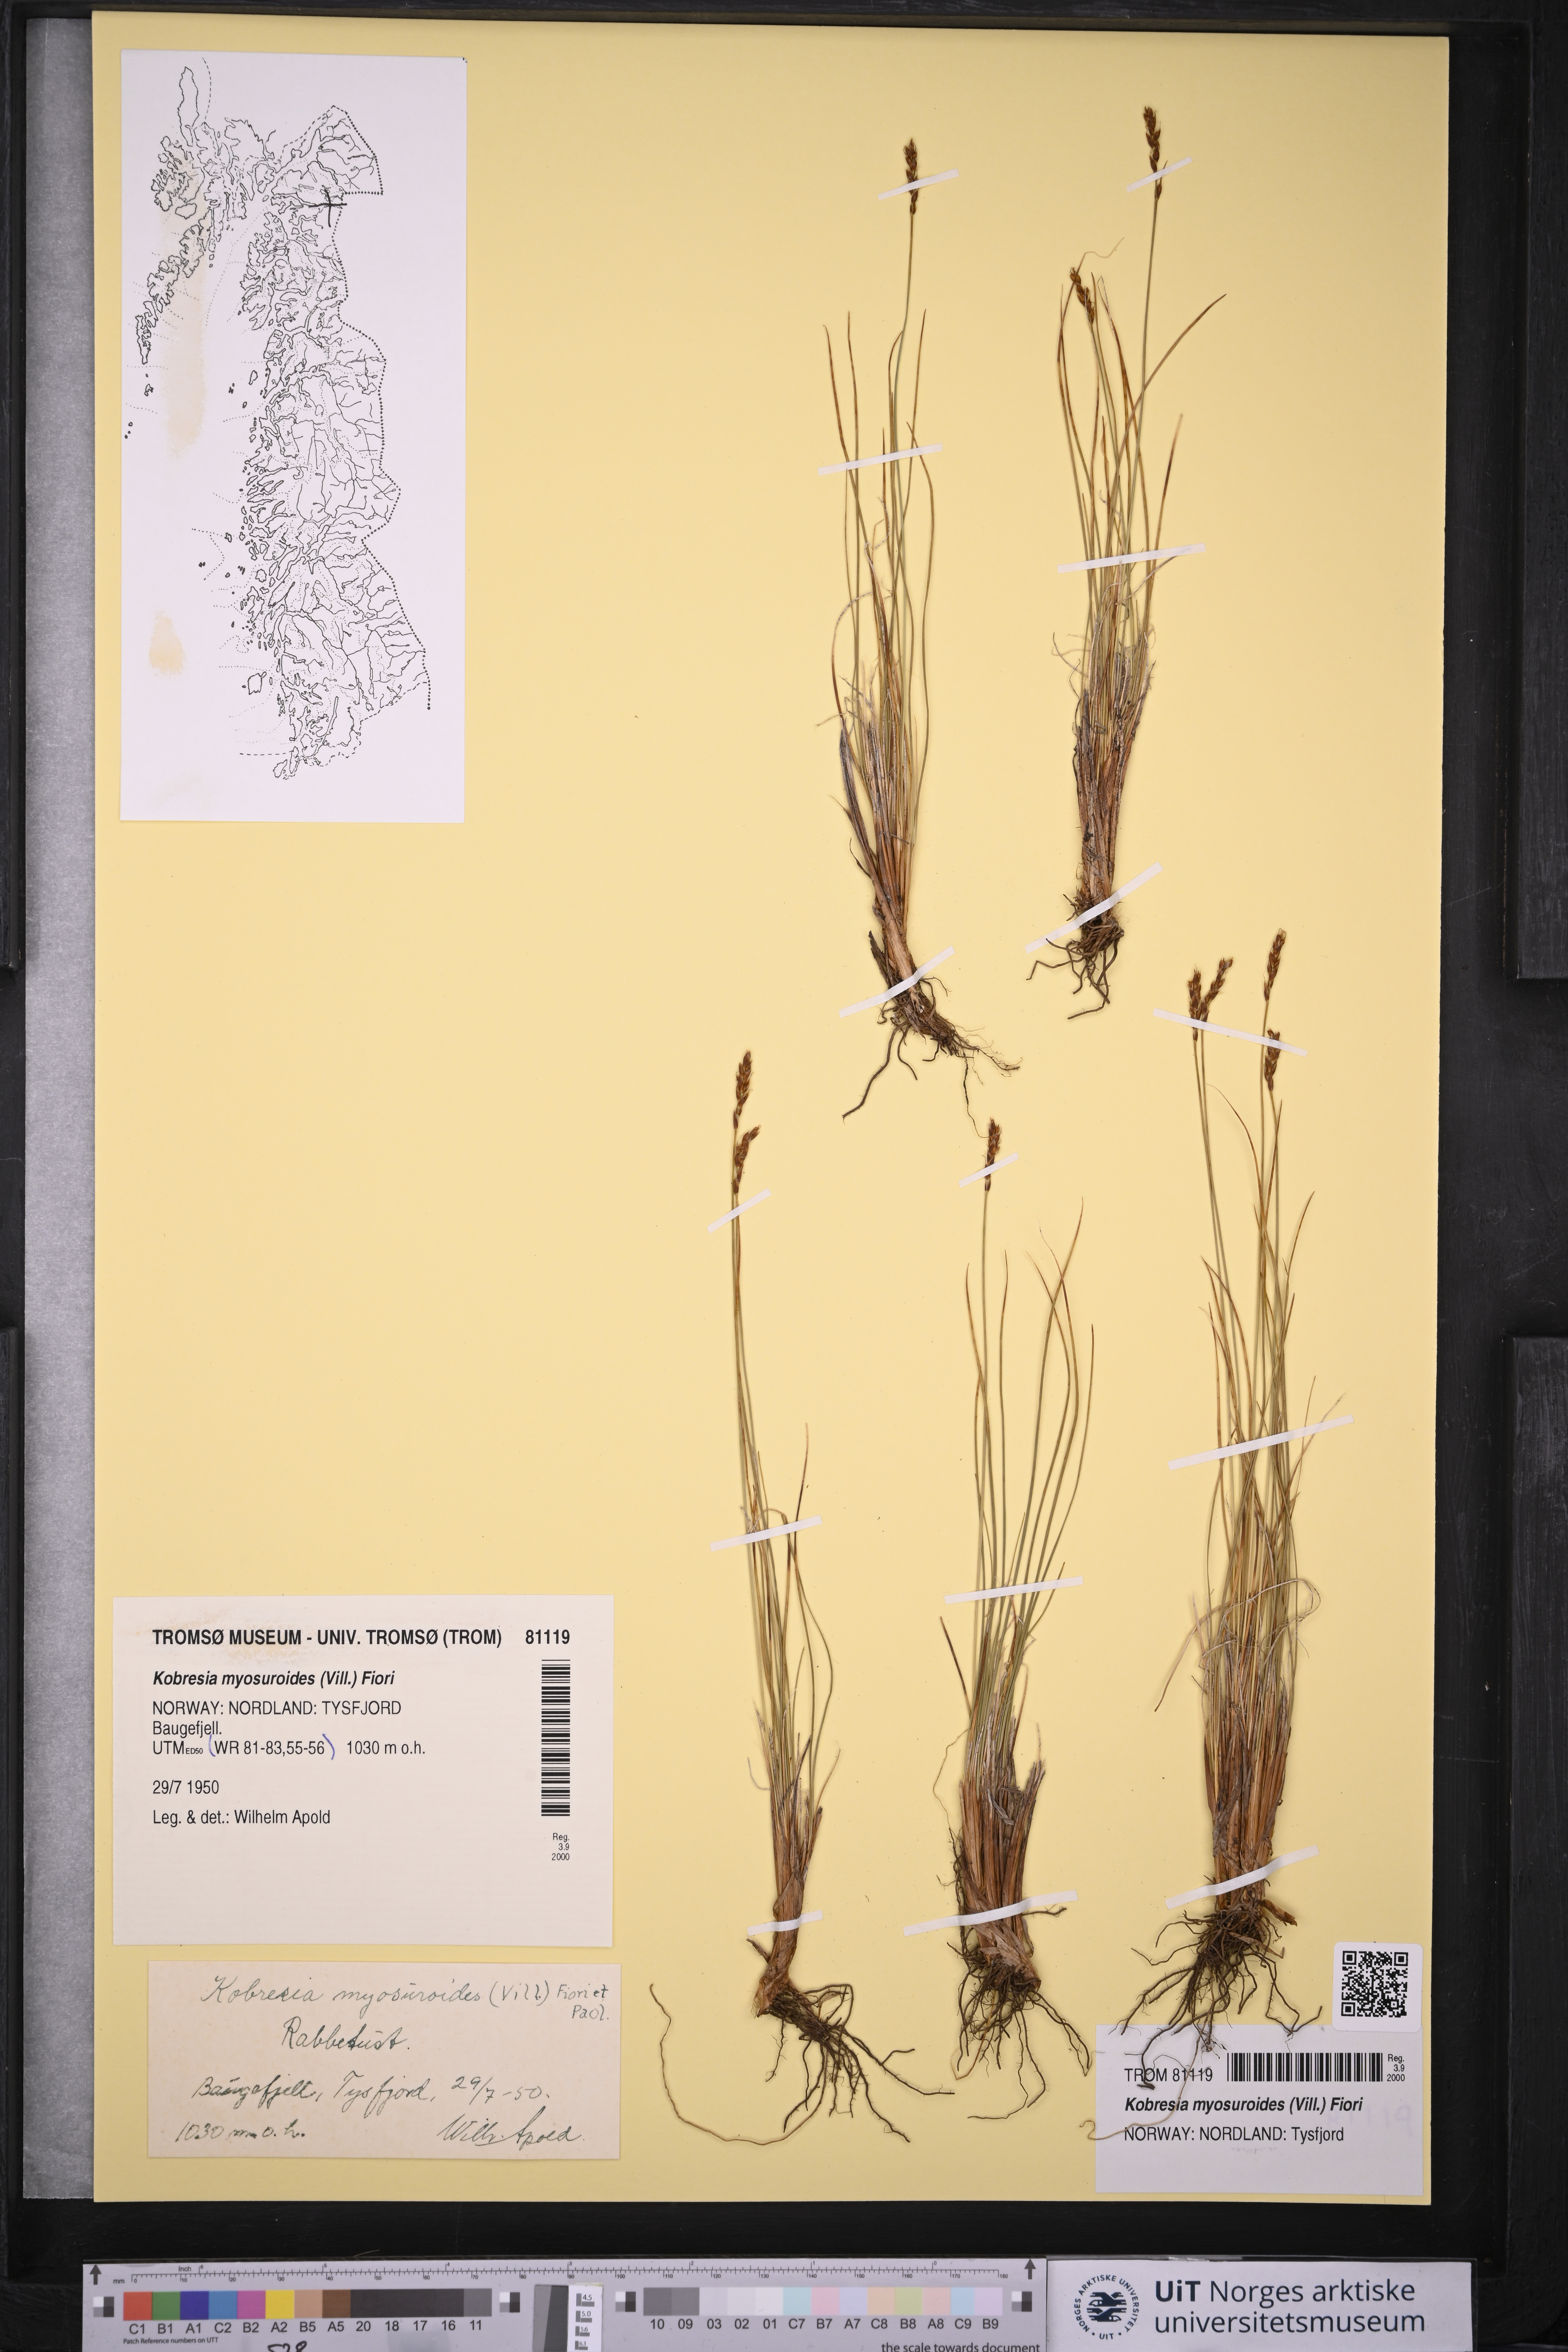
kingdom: Plantae
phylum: Tracheophyta
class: Liliopsida
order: Poales
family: Cyperaceae
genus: Carex
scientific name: Carex myosuroides
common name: Bellard's bog sedge
